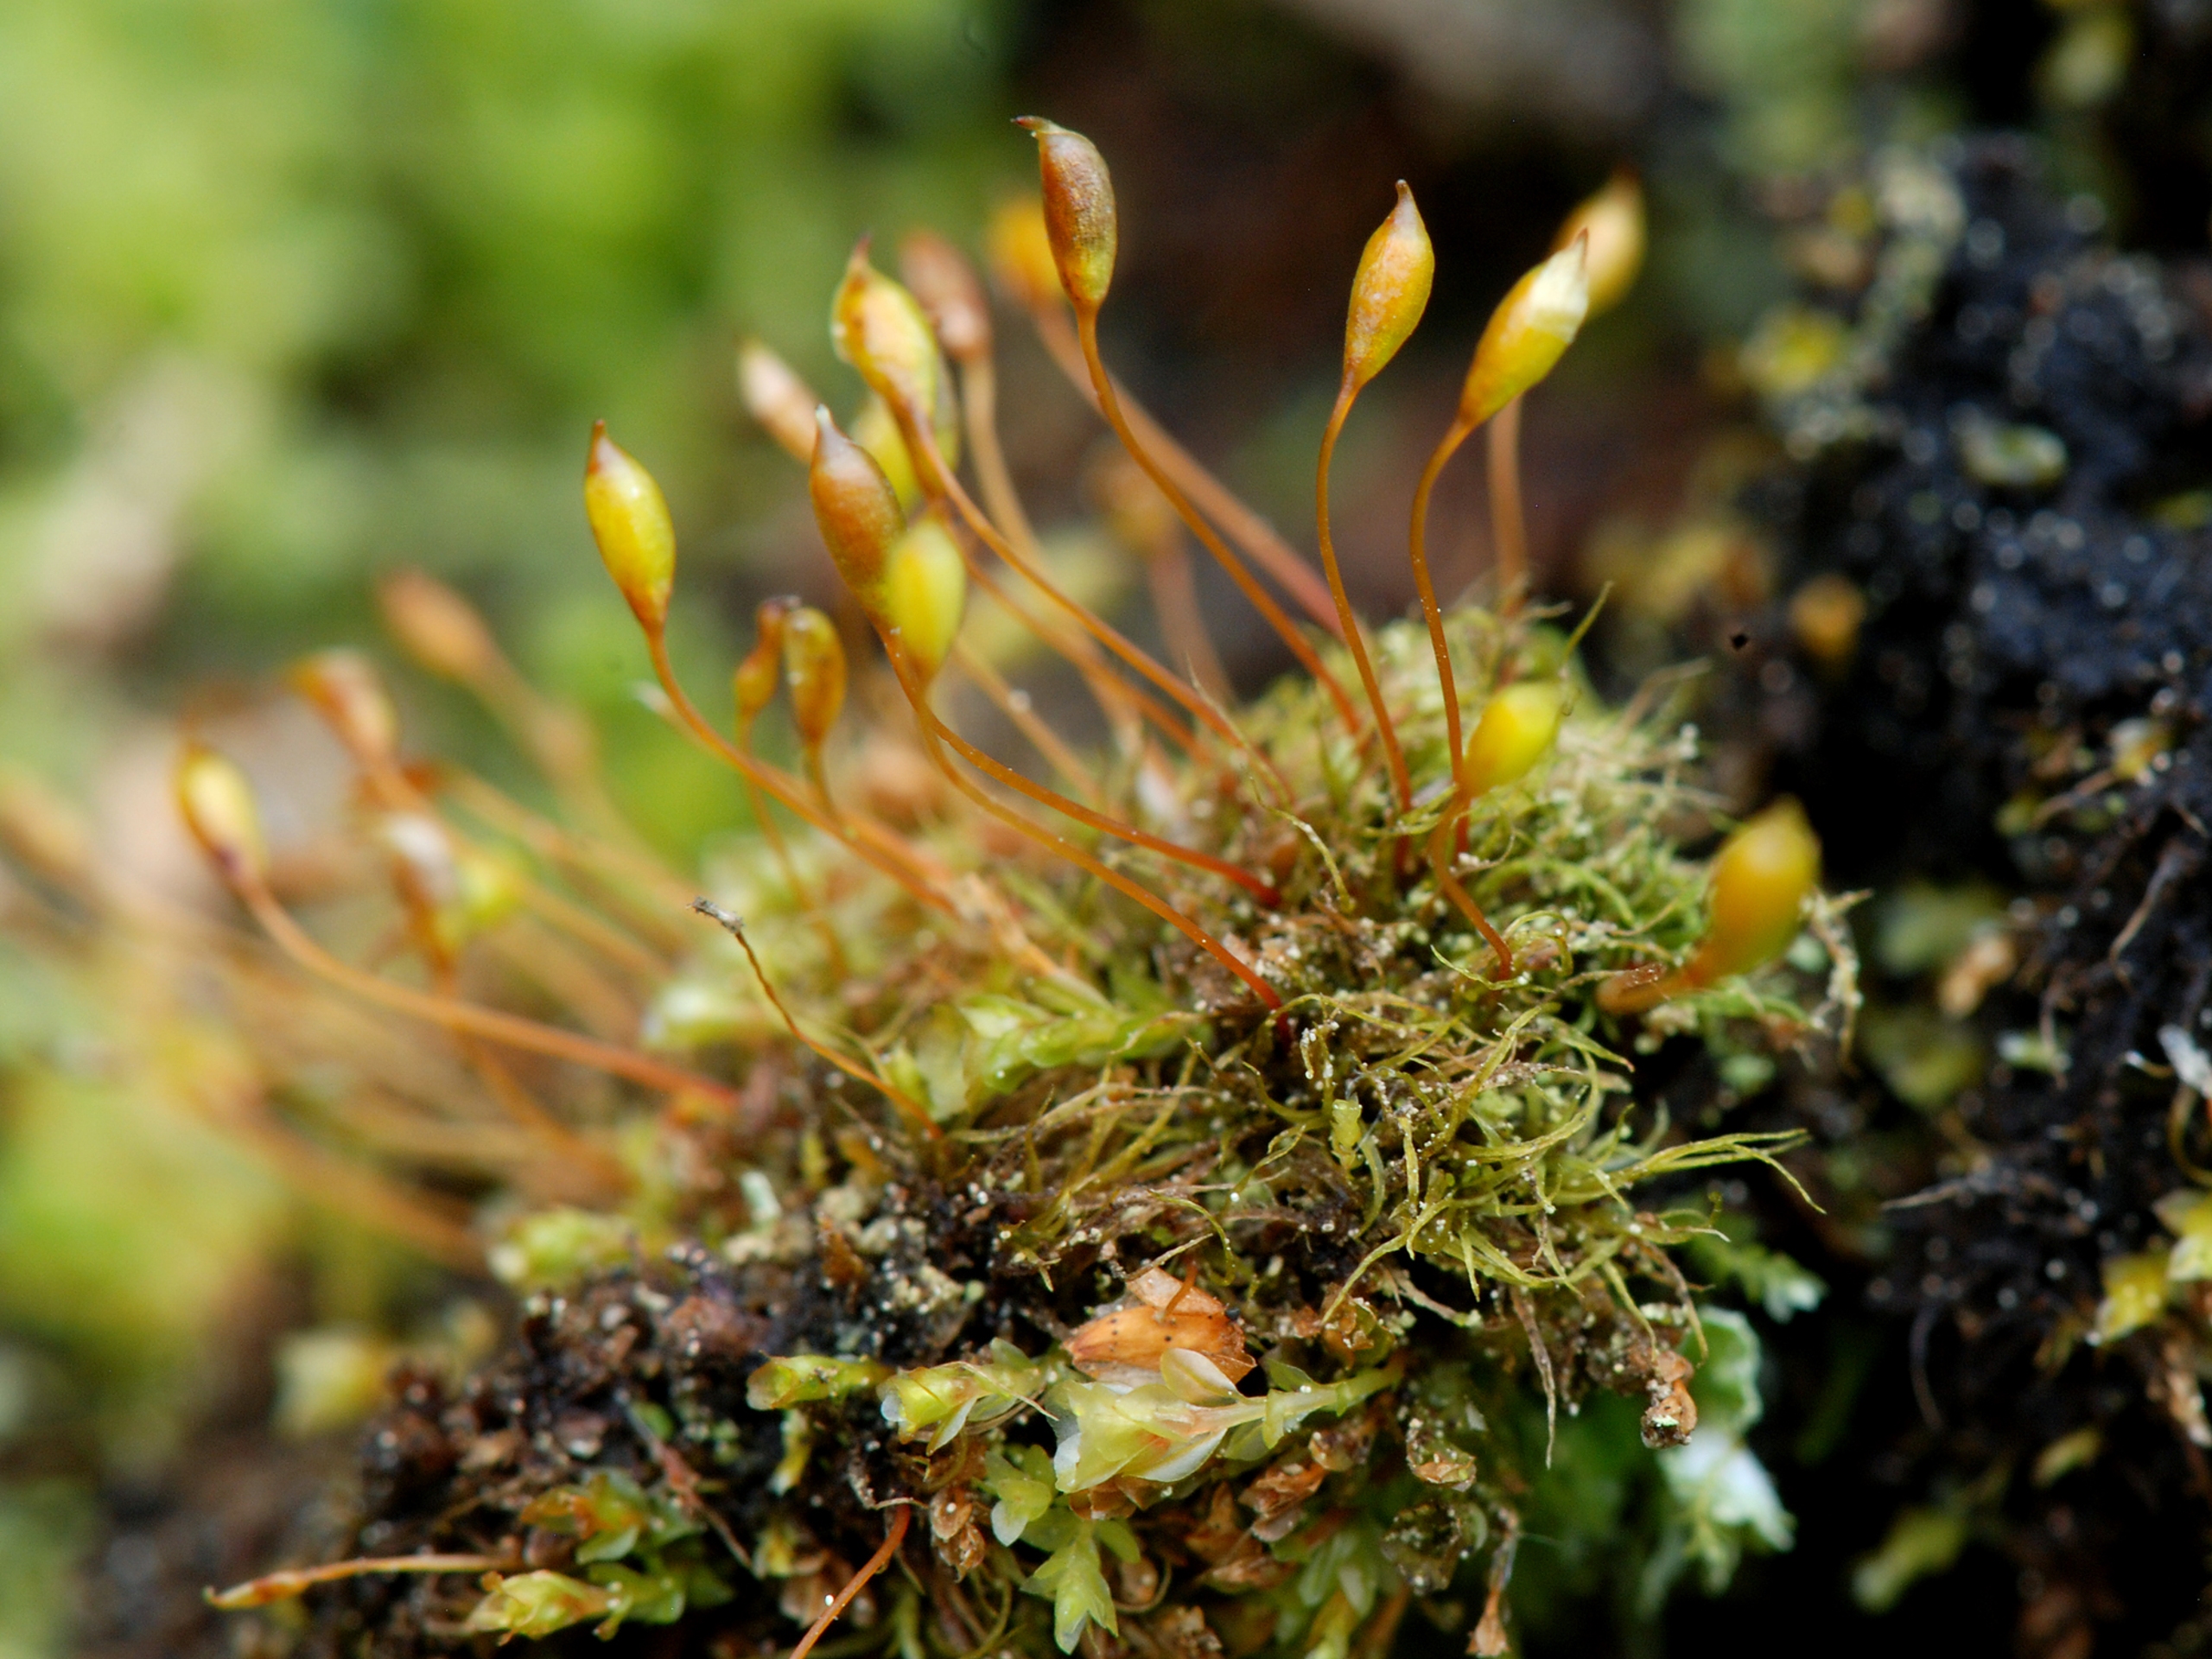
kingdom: Plantae
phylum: Bryophyta
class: Bryopsida
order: Orthodontiales
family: Orthodontiaceae
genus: Orthodontium
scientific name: Orthodontium lineare
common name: Smalbladet plysmos
